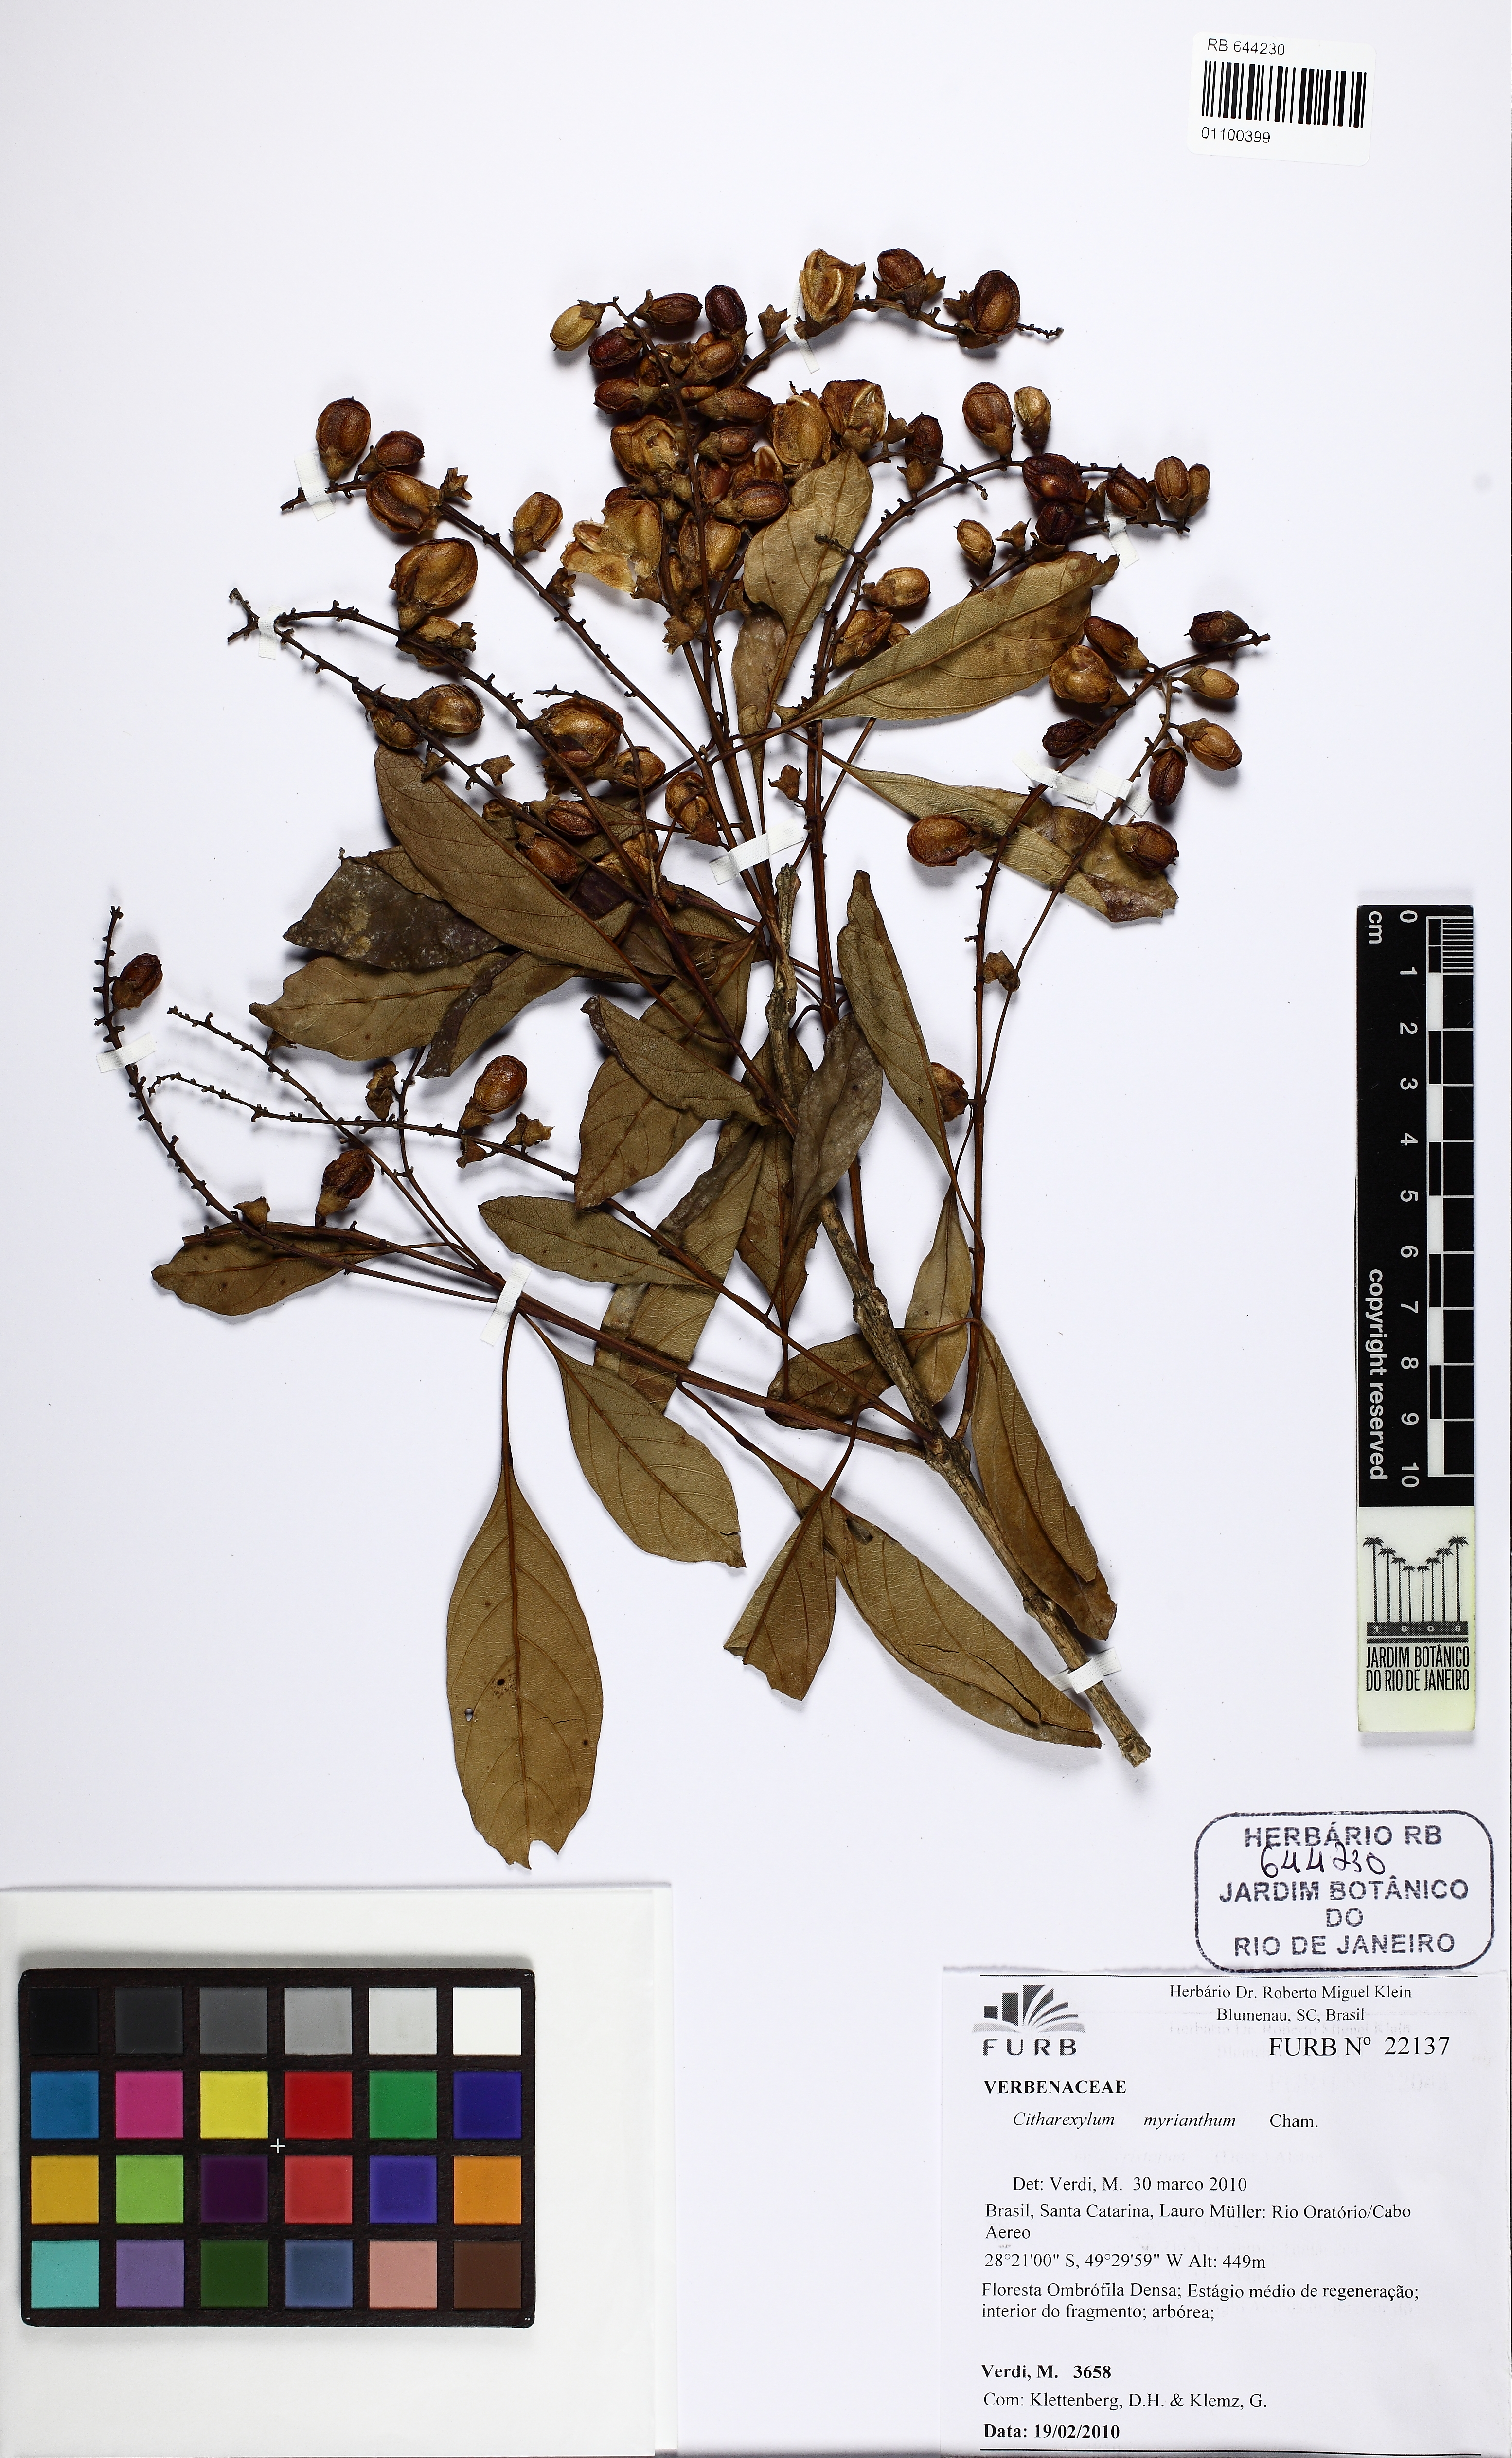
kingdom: Plantae
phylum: Tracheophyta
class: Magnoliopsida
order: Lamiales
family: Verbenaceae
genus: Citharexylum
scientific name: Citharexylum myrianthum
